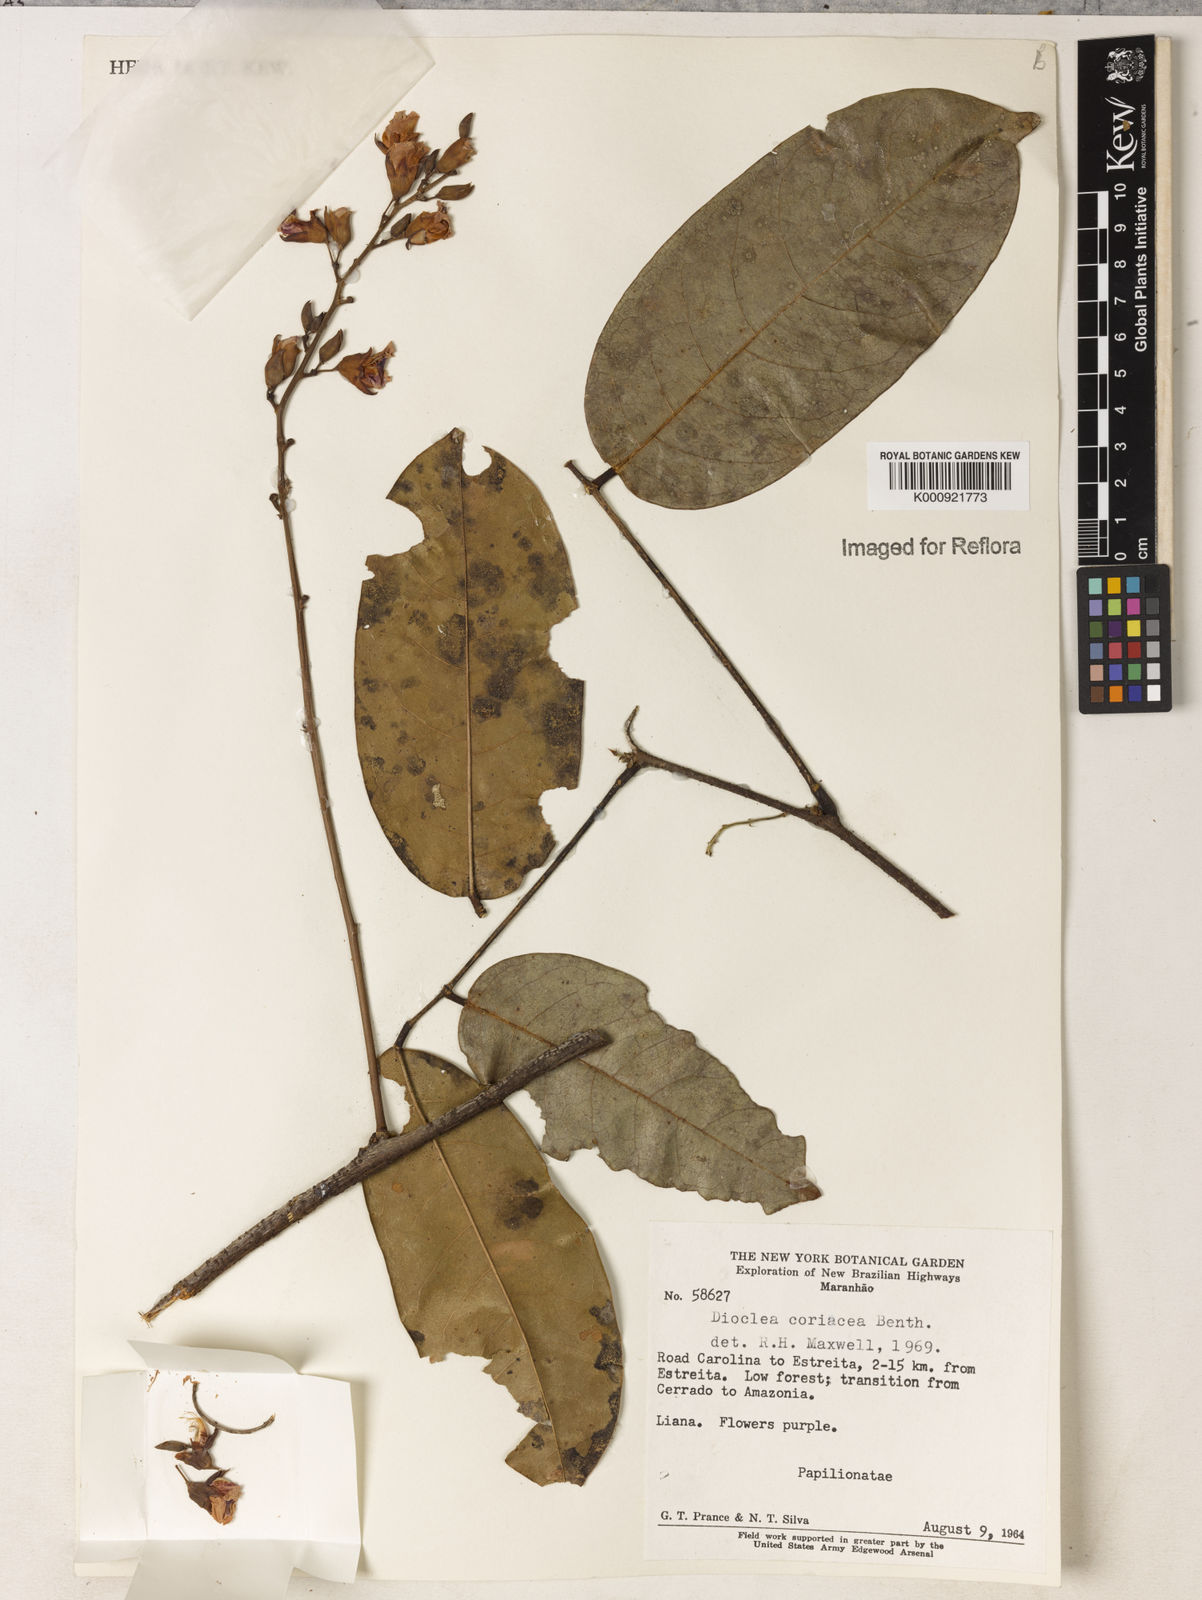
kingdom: Plantae
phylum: Tracheophyta
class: Magnoliopsida
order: Fabales
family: Fabaceae
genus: Macropsychanthus
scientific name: Macropsychanthus glaber
